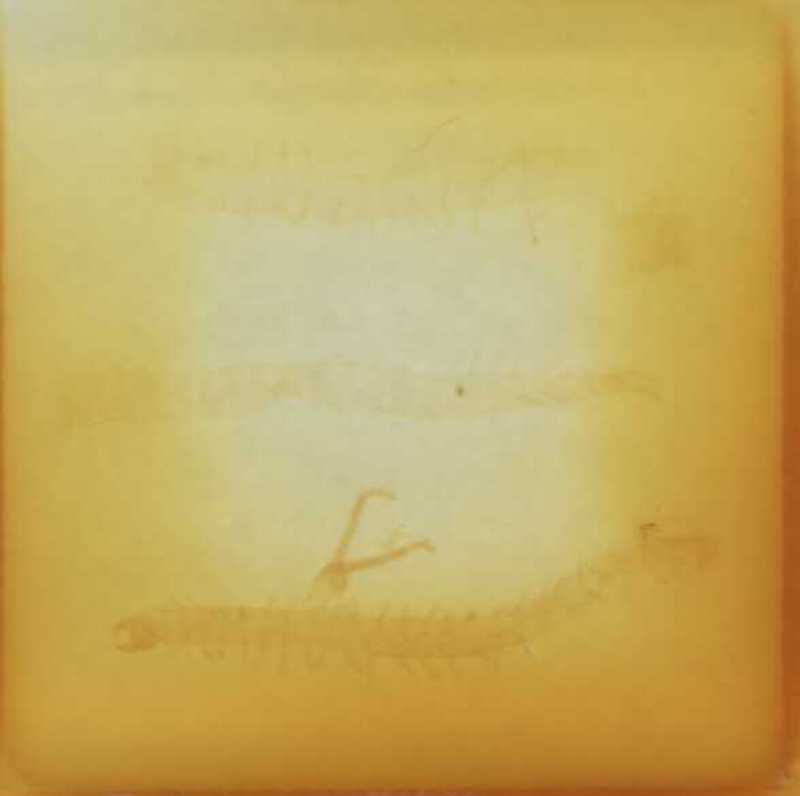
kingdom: Animalia
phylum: Arthropoda
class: Chilopoda
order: Geophilomorpha
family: Geophilidae
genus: Clinopodes
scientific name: Clinopodes rodnaensis
